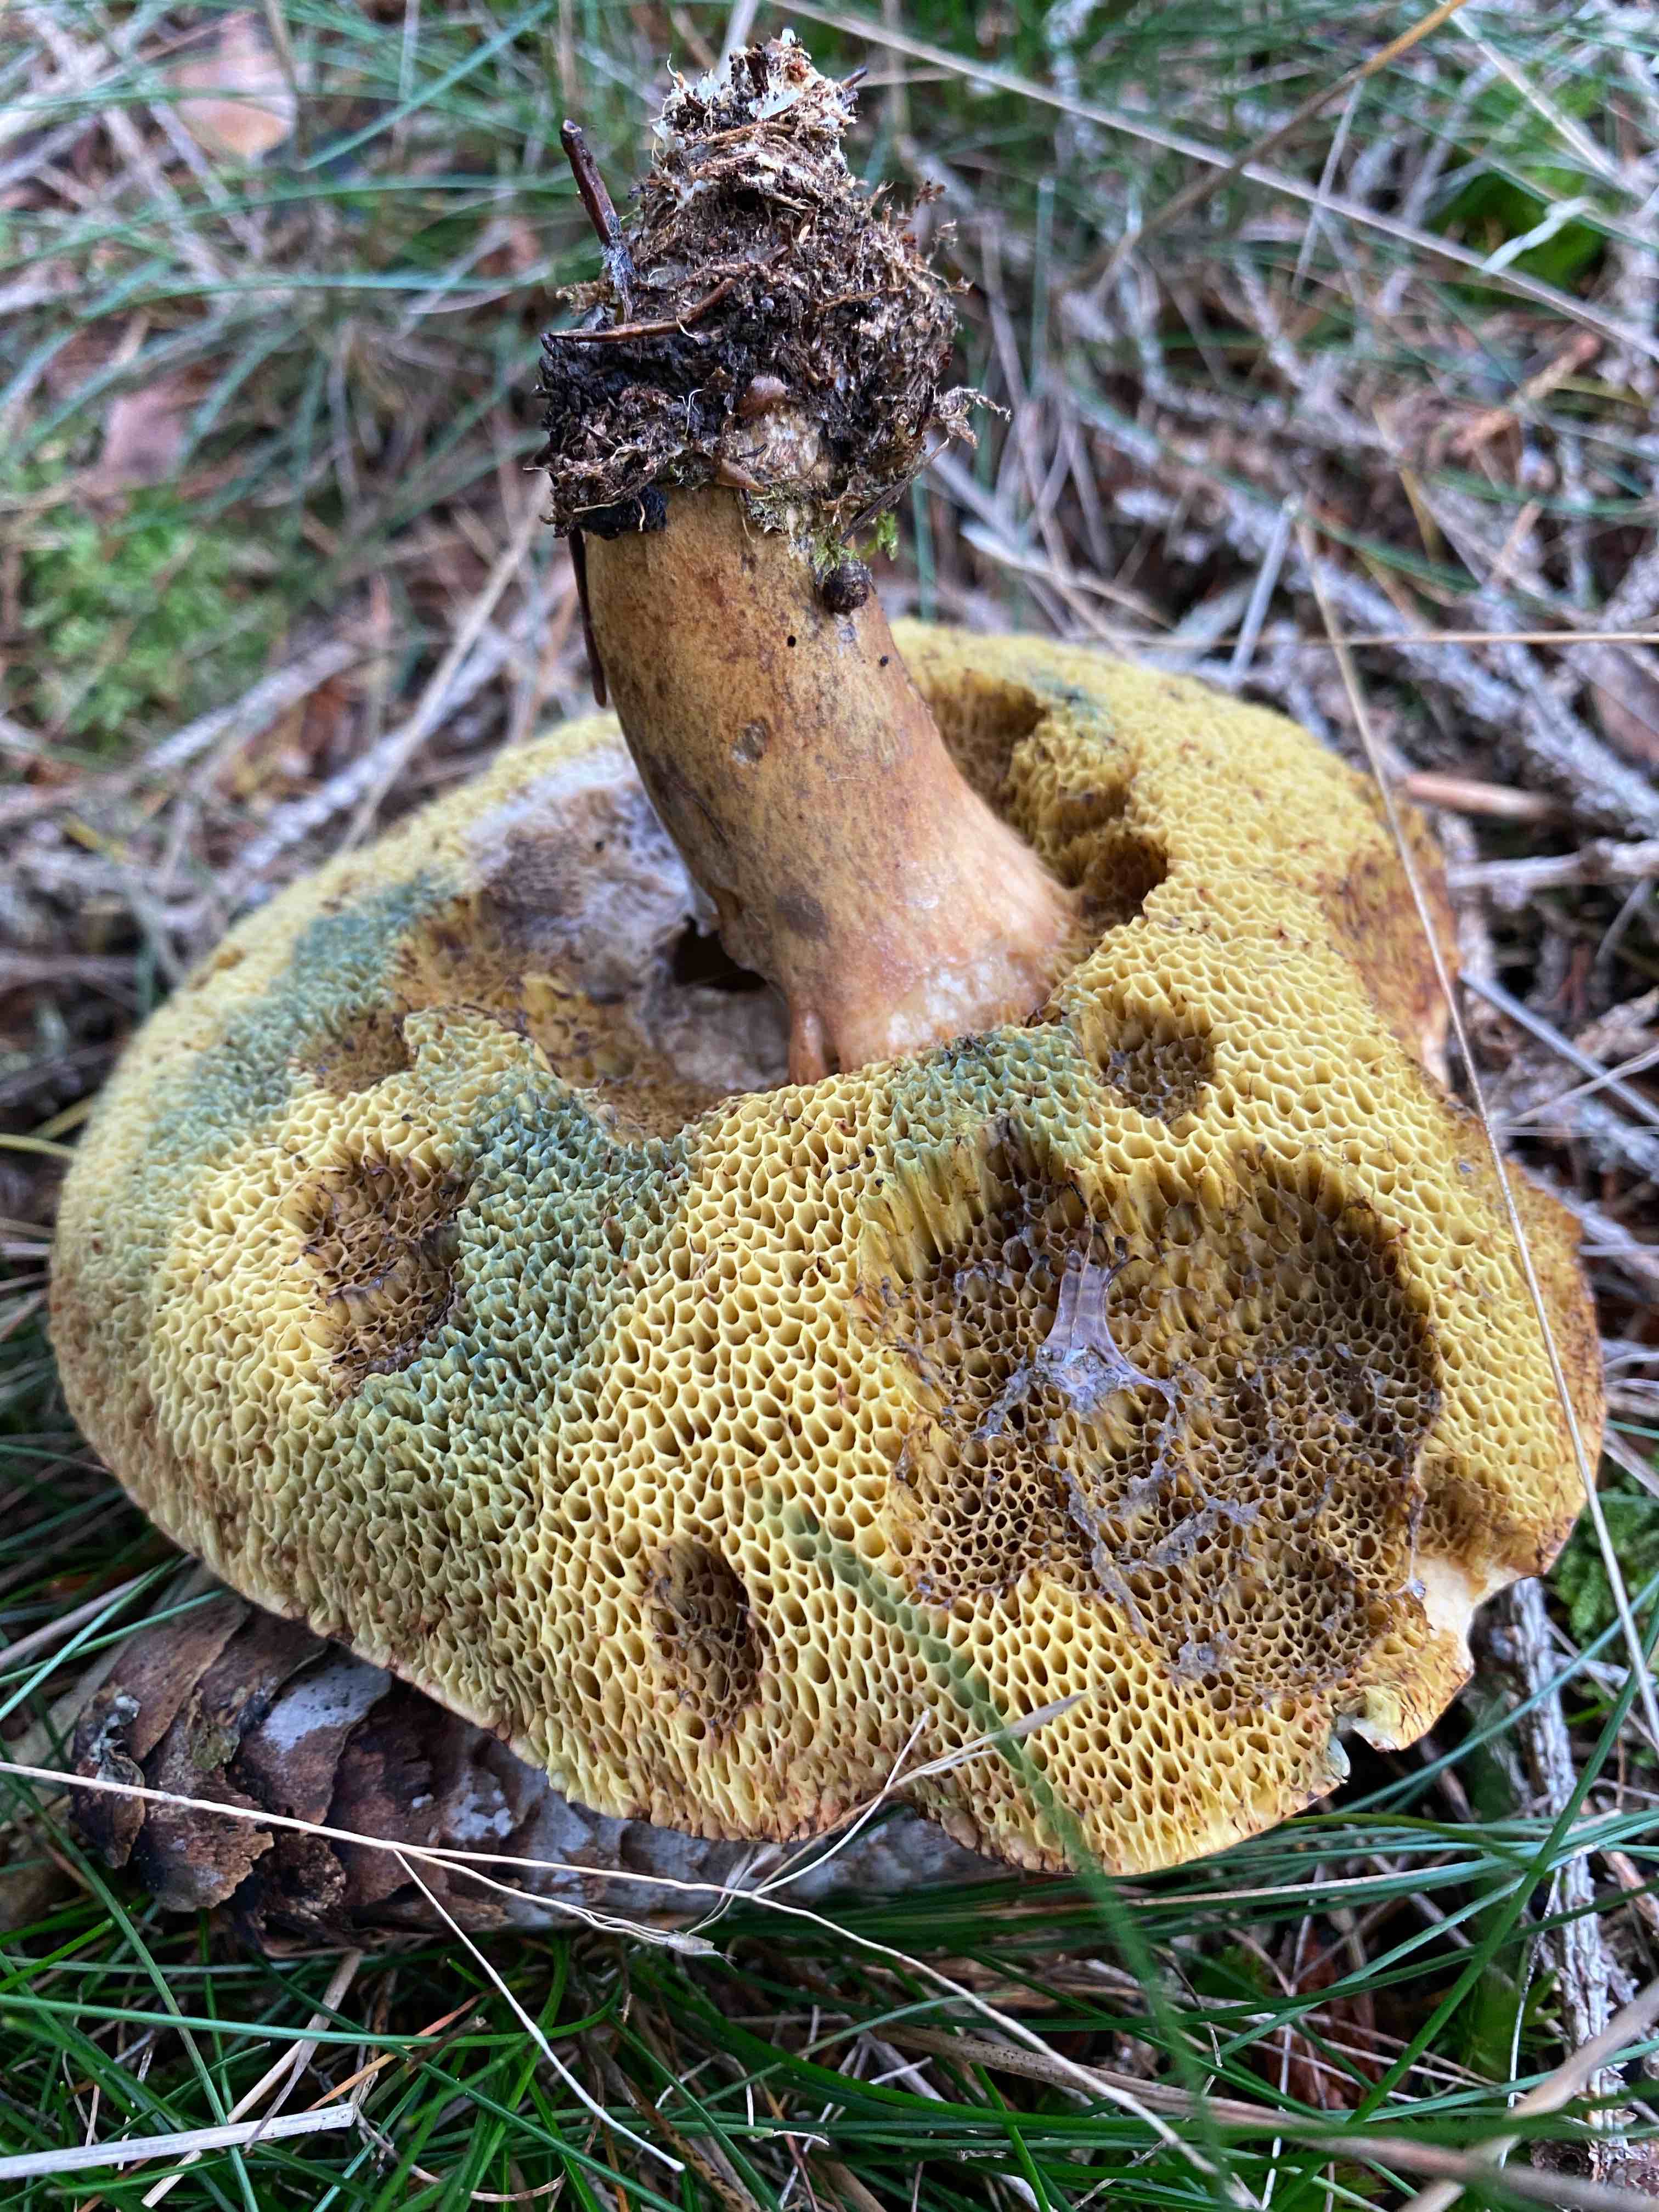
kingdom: Fungi
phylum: Basidiomycota
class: Agaricomycetes
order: Boletales
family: Boletaceae
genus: Imleria
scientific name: Imleria badia
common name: brunstokket rørhat
